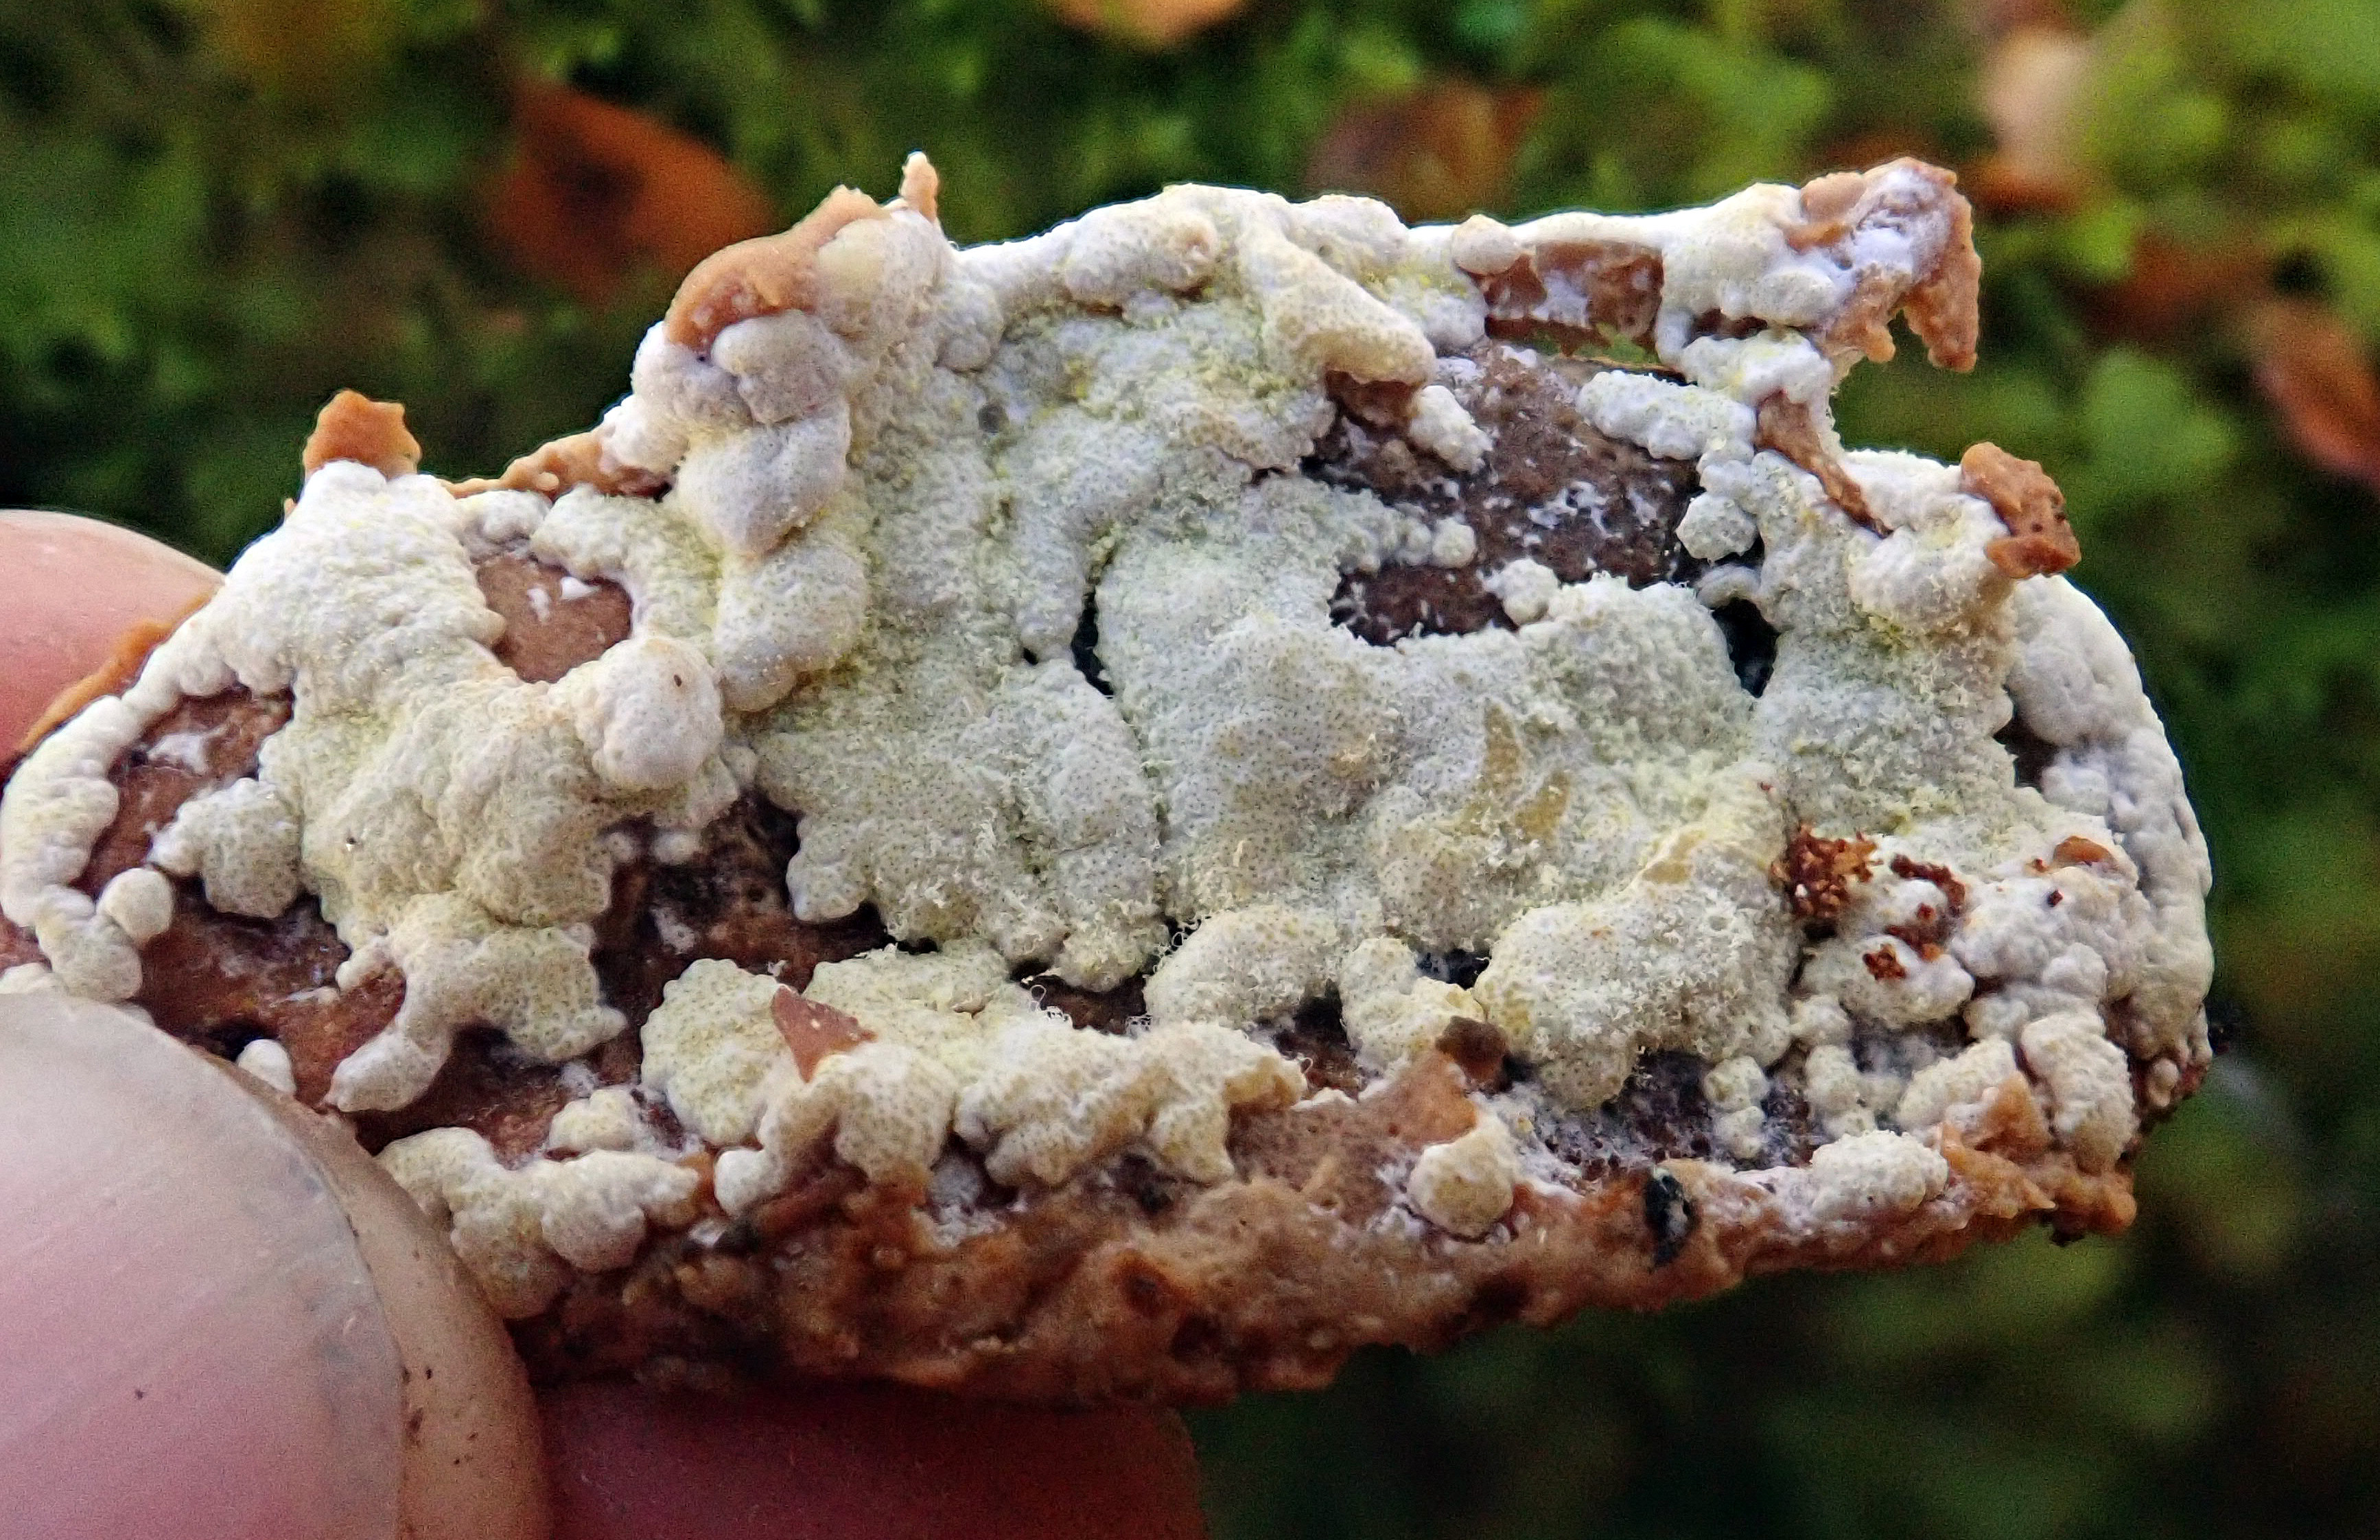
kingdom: Fungi
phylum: Ascomycota
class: Sordariomycetes
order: Hypocreales
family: Hypocreaceae
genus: Trichoderma
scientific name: Trichoderma pulvinatum
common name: Ochre cushion
